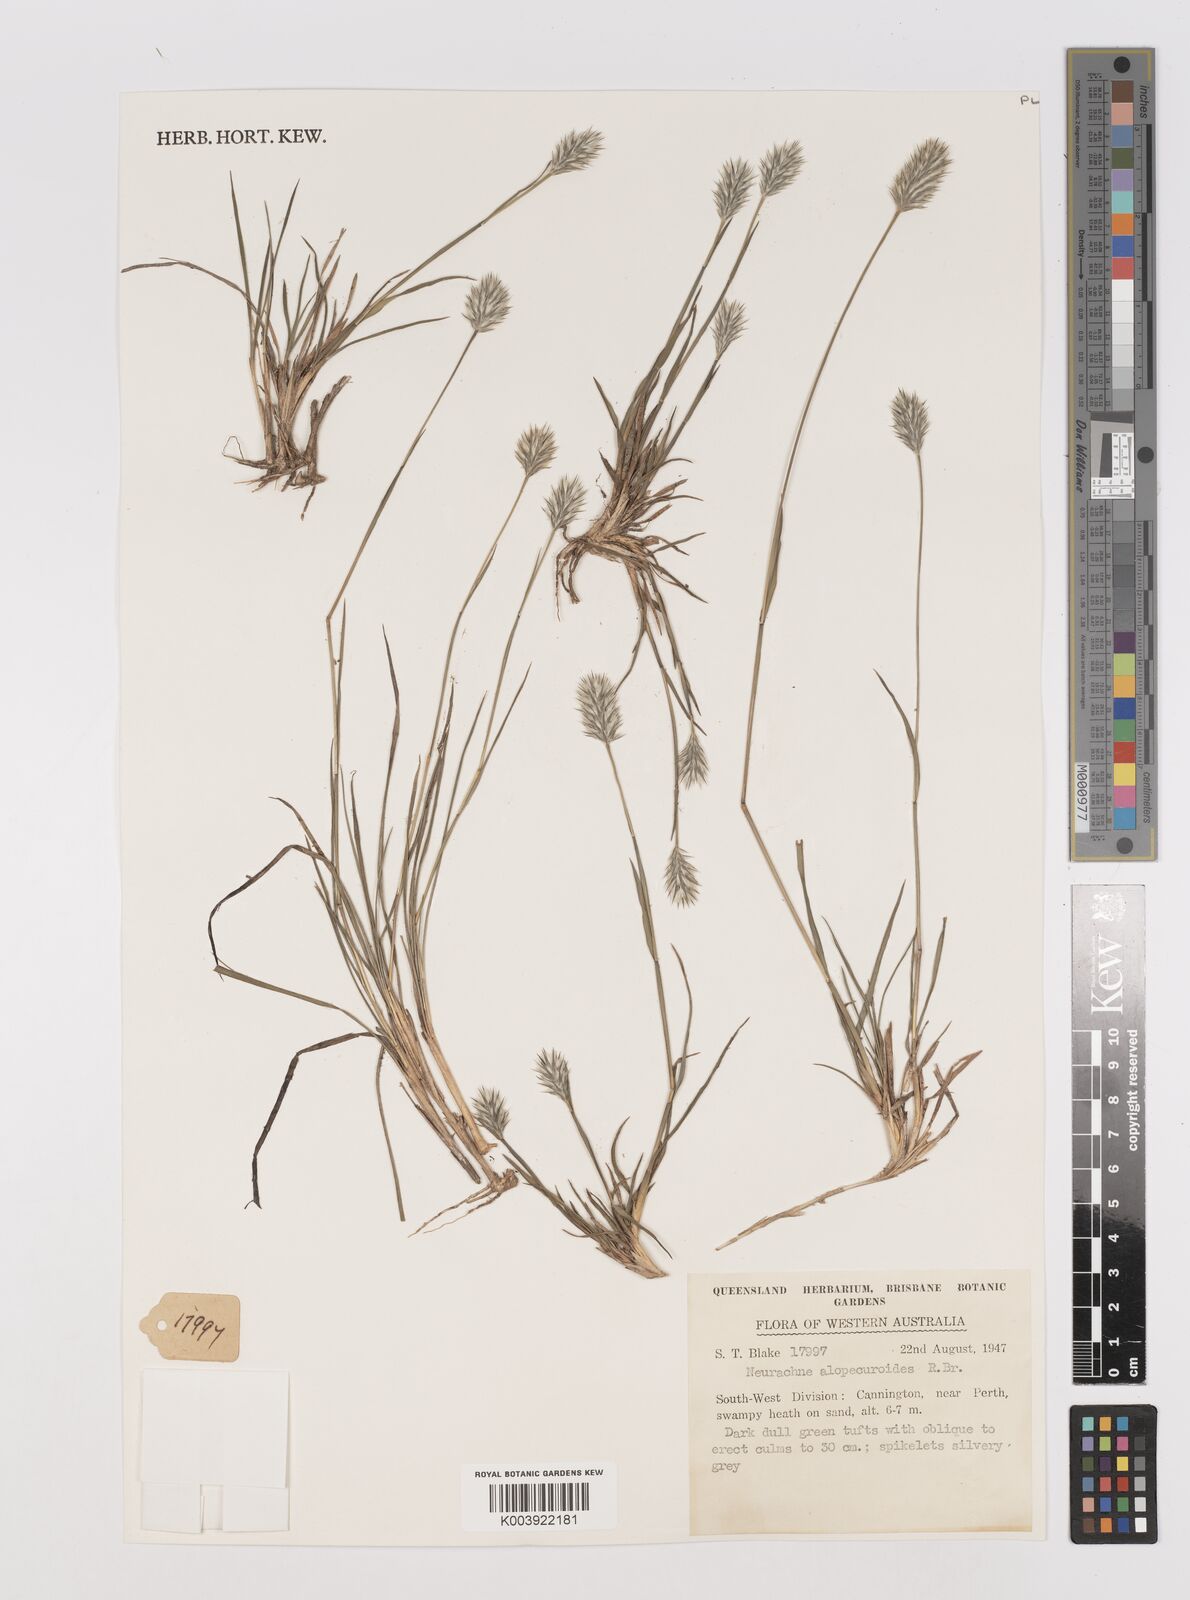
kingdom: Plantae
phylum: Tracheophyta
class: Liliopsida
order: Poales
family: Poaceae
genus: Neurachne
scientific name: Neurachne alopecuroidea
